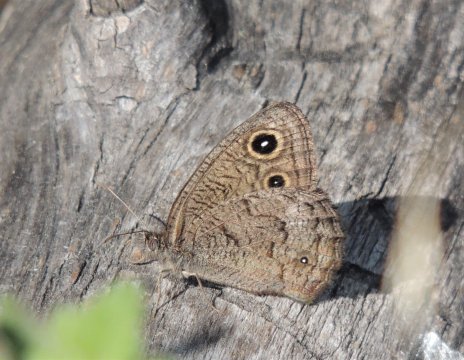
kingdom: Animalia
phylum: Arthropoda
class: Insecta
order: Lepidoptera
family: Nymphalidae
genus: Cercyonis
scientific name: Cercyonis sthenele
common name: Great Basin Wood-Nymph
